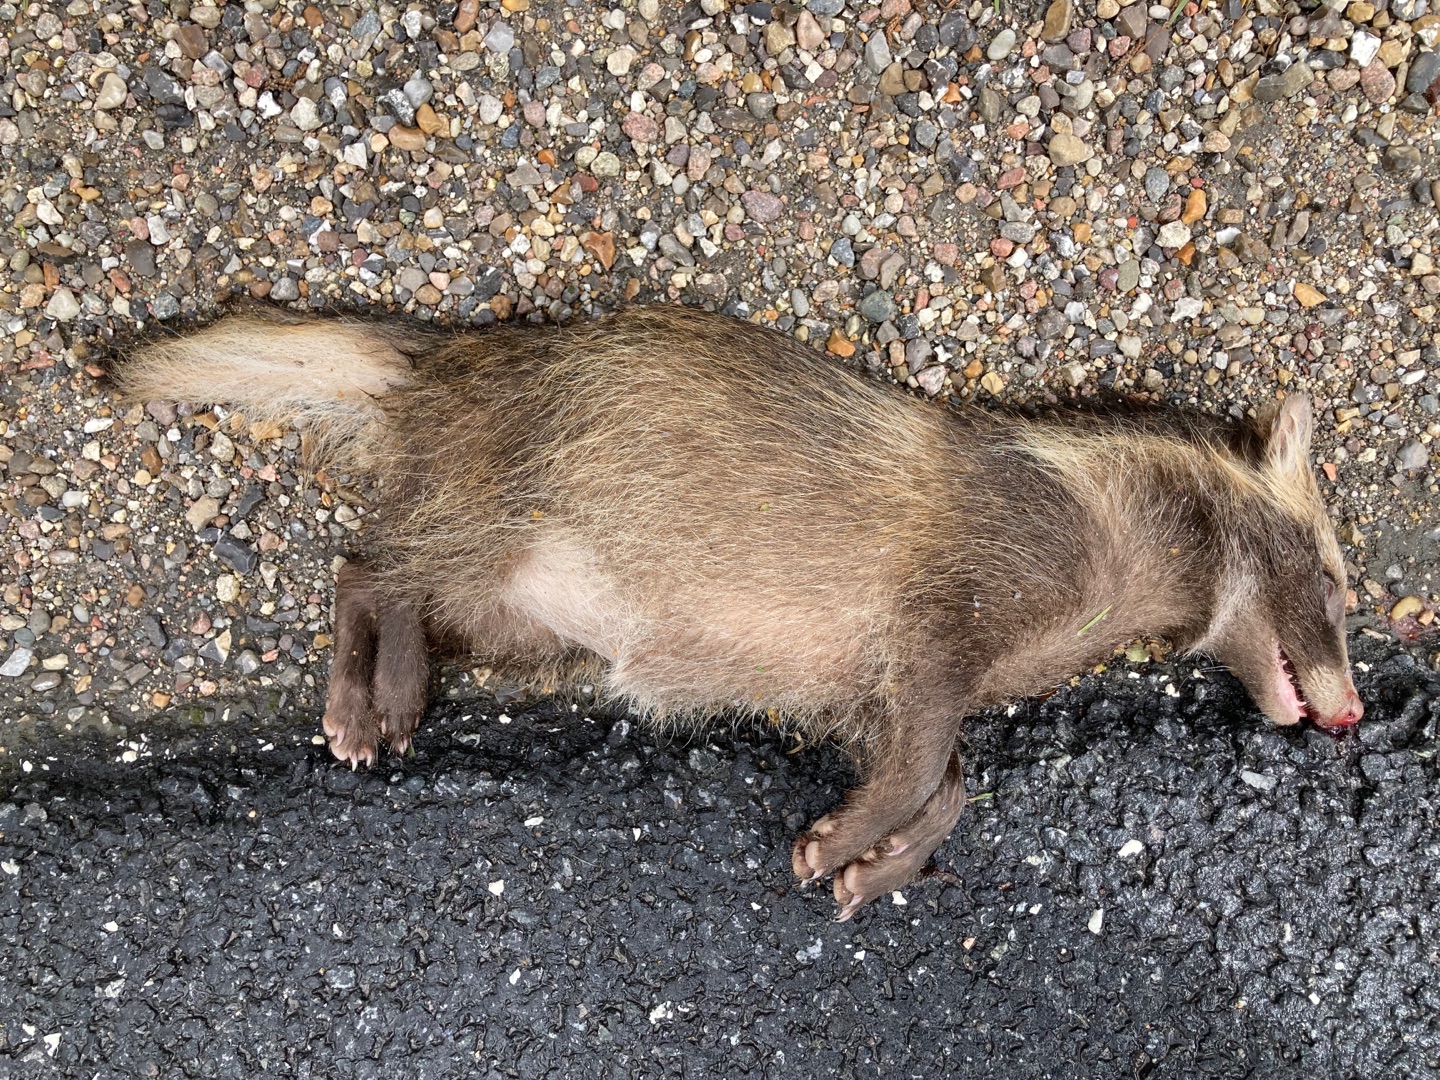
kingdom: Animalia
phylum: Chordata
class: Mammalia
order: Carnivora
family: Canidae
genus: Nyctereutes
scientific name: Nyctereutes procyonoides
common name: Mårhund
